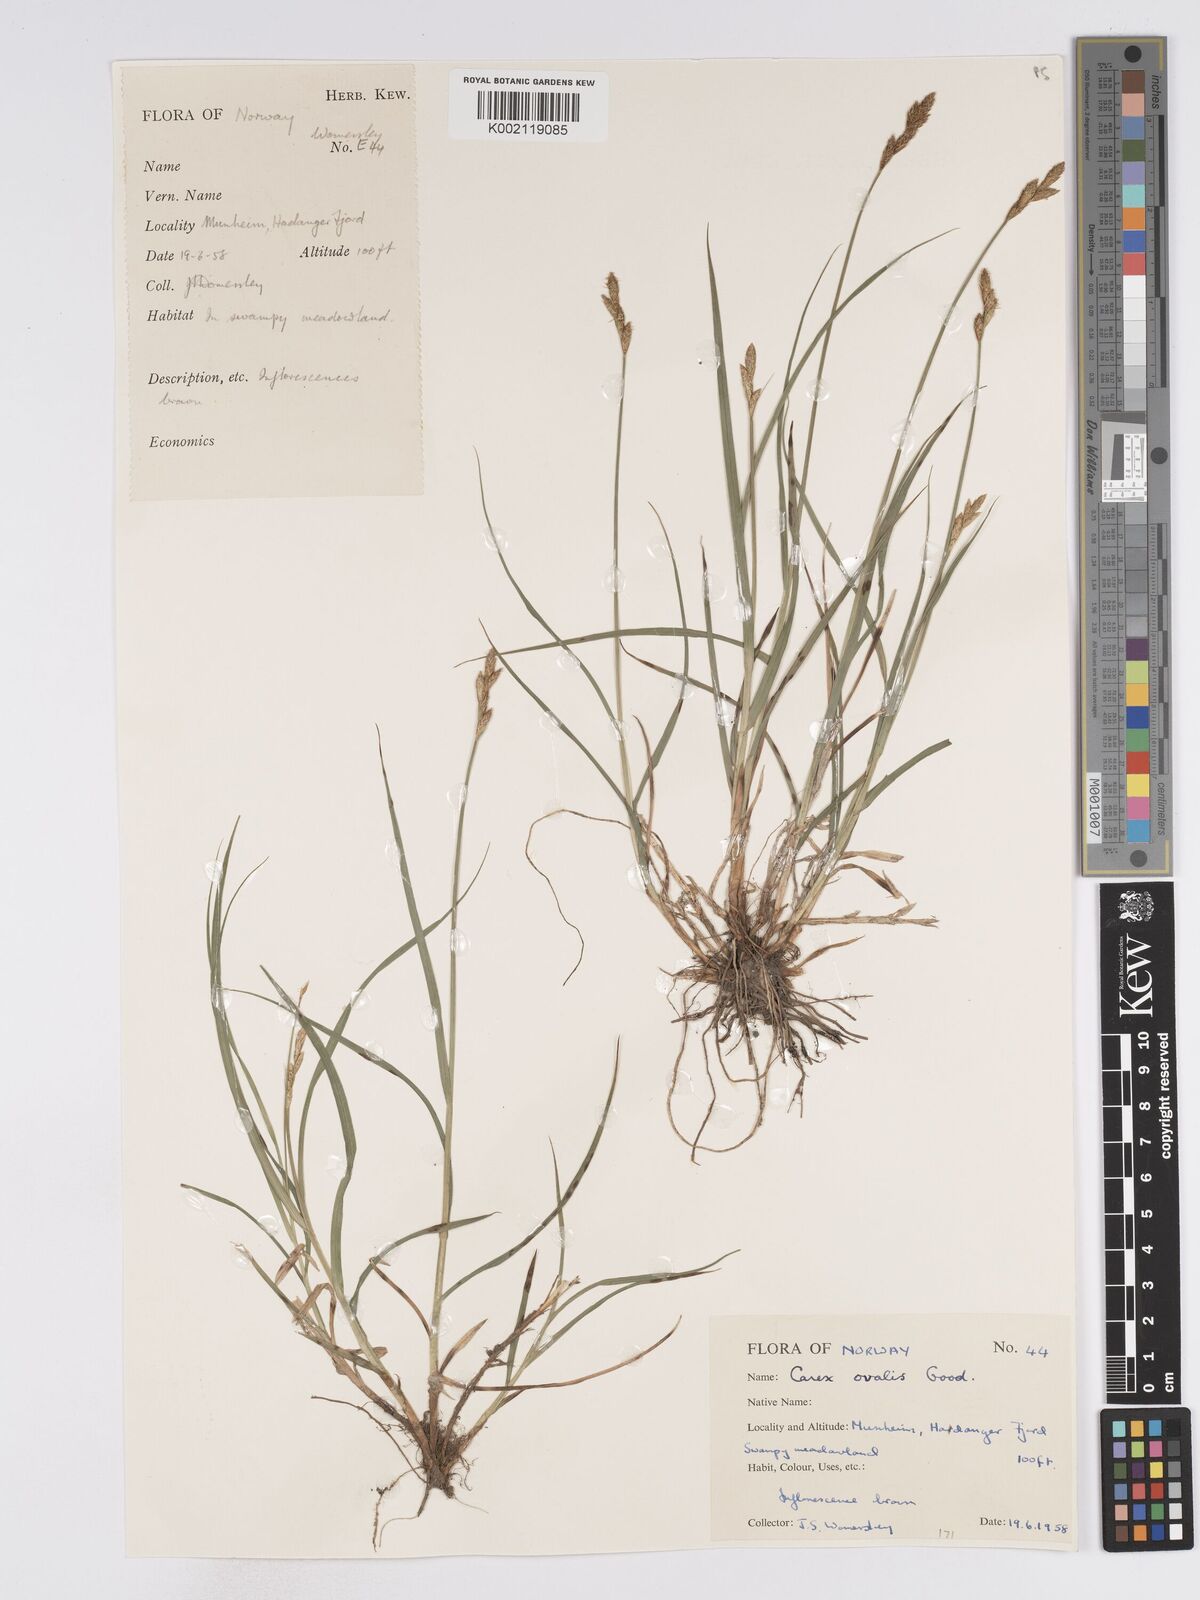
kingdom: Plantae
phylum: Tracheophyta
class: Liliopsida
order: Poales
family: Cyperaceae
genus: Carex
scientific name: Carex leporina
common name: Oval sedge
